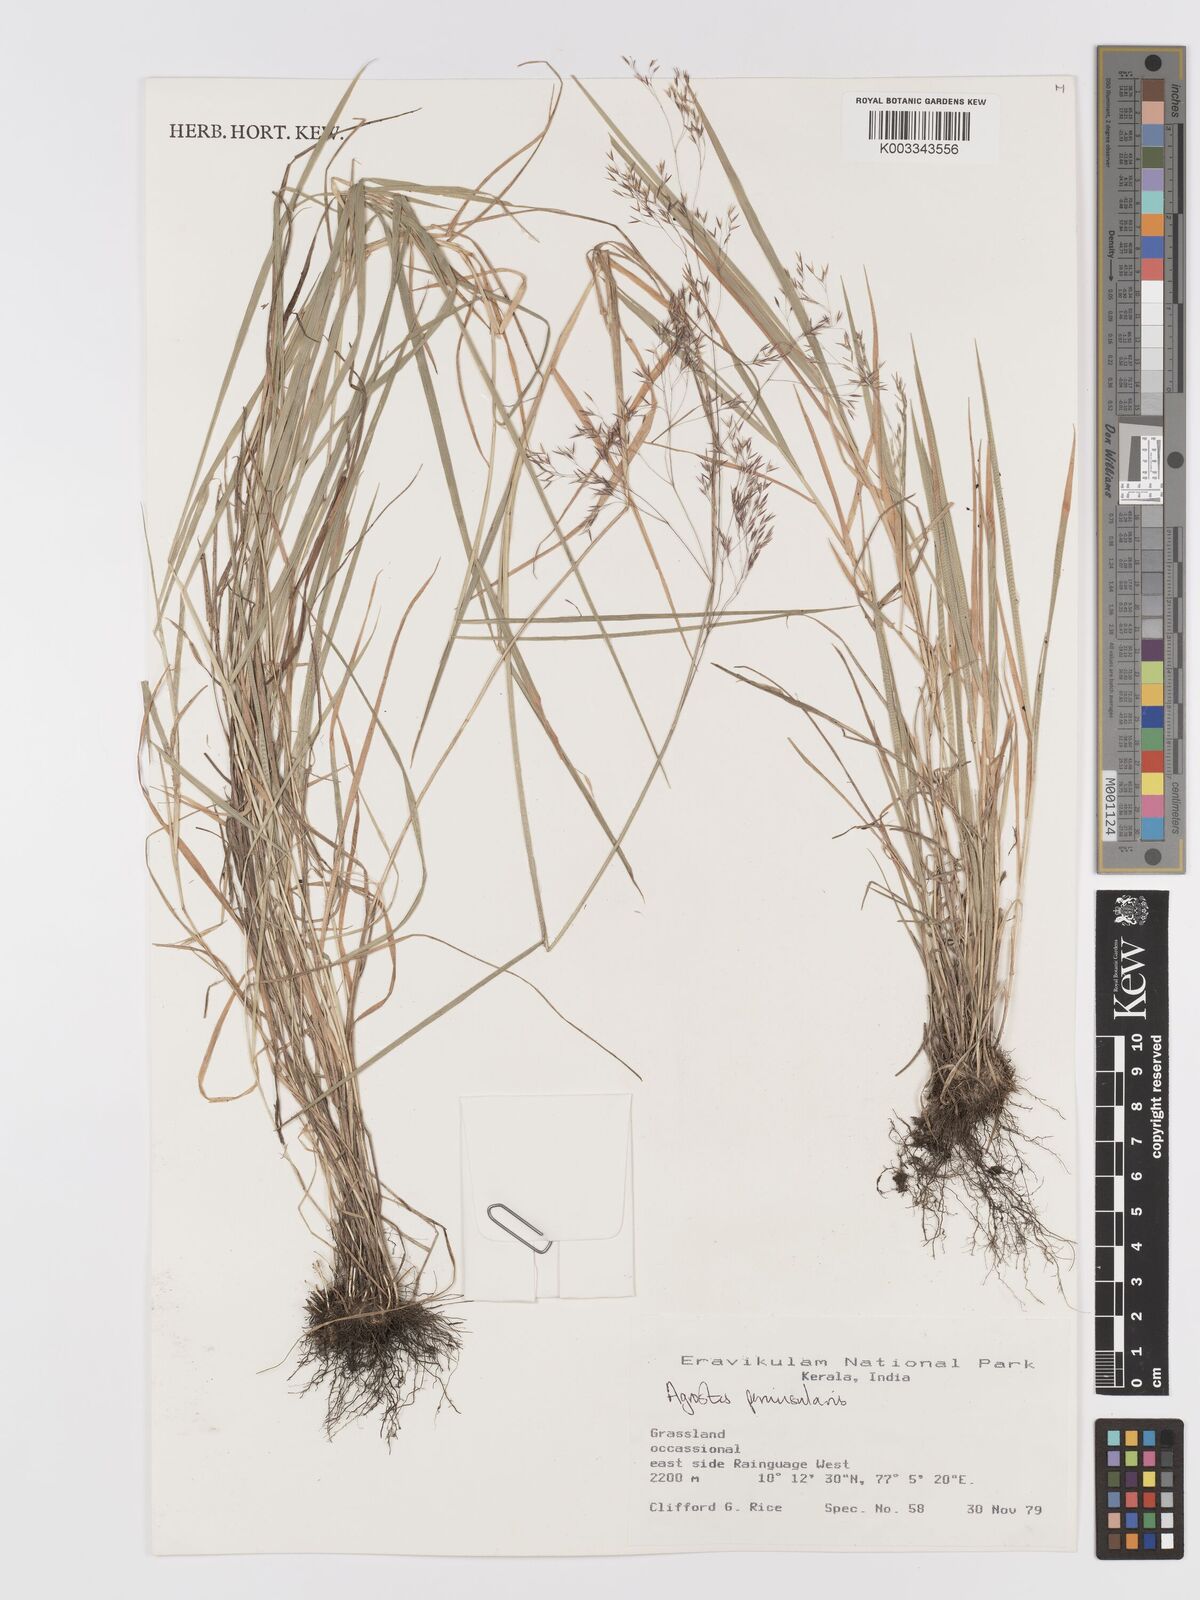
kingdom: Plantae
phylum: Tracheophyta
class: Liliopsida
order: Poales
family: Poaceae
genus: Agrostis
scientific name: Agrostis peninsularis
